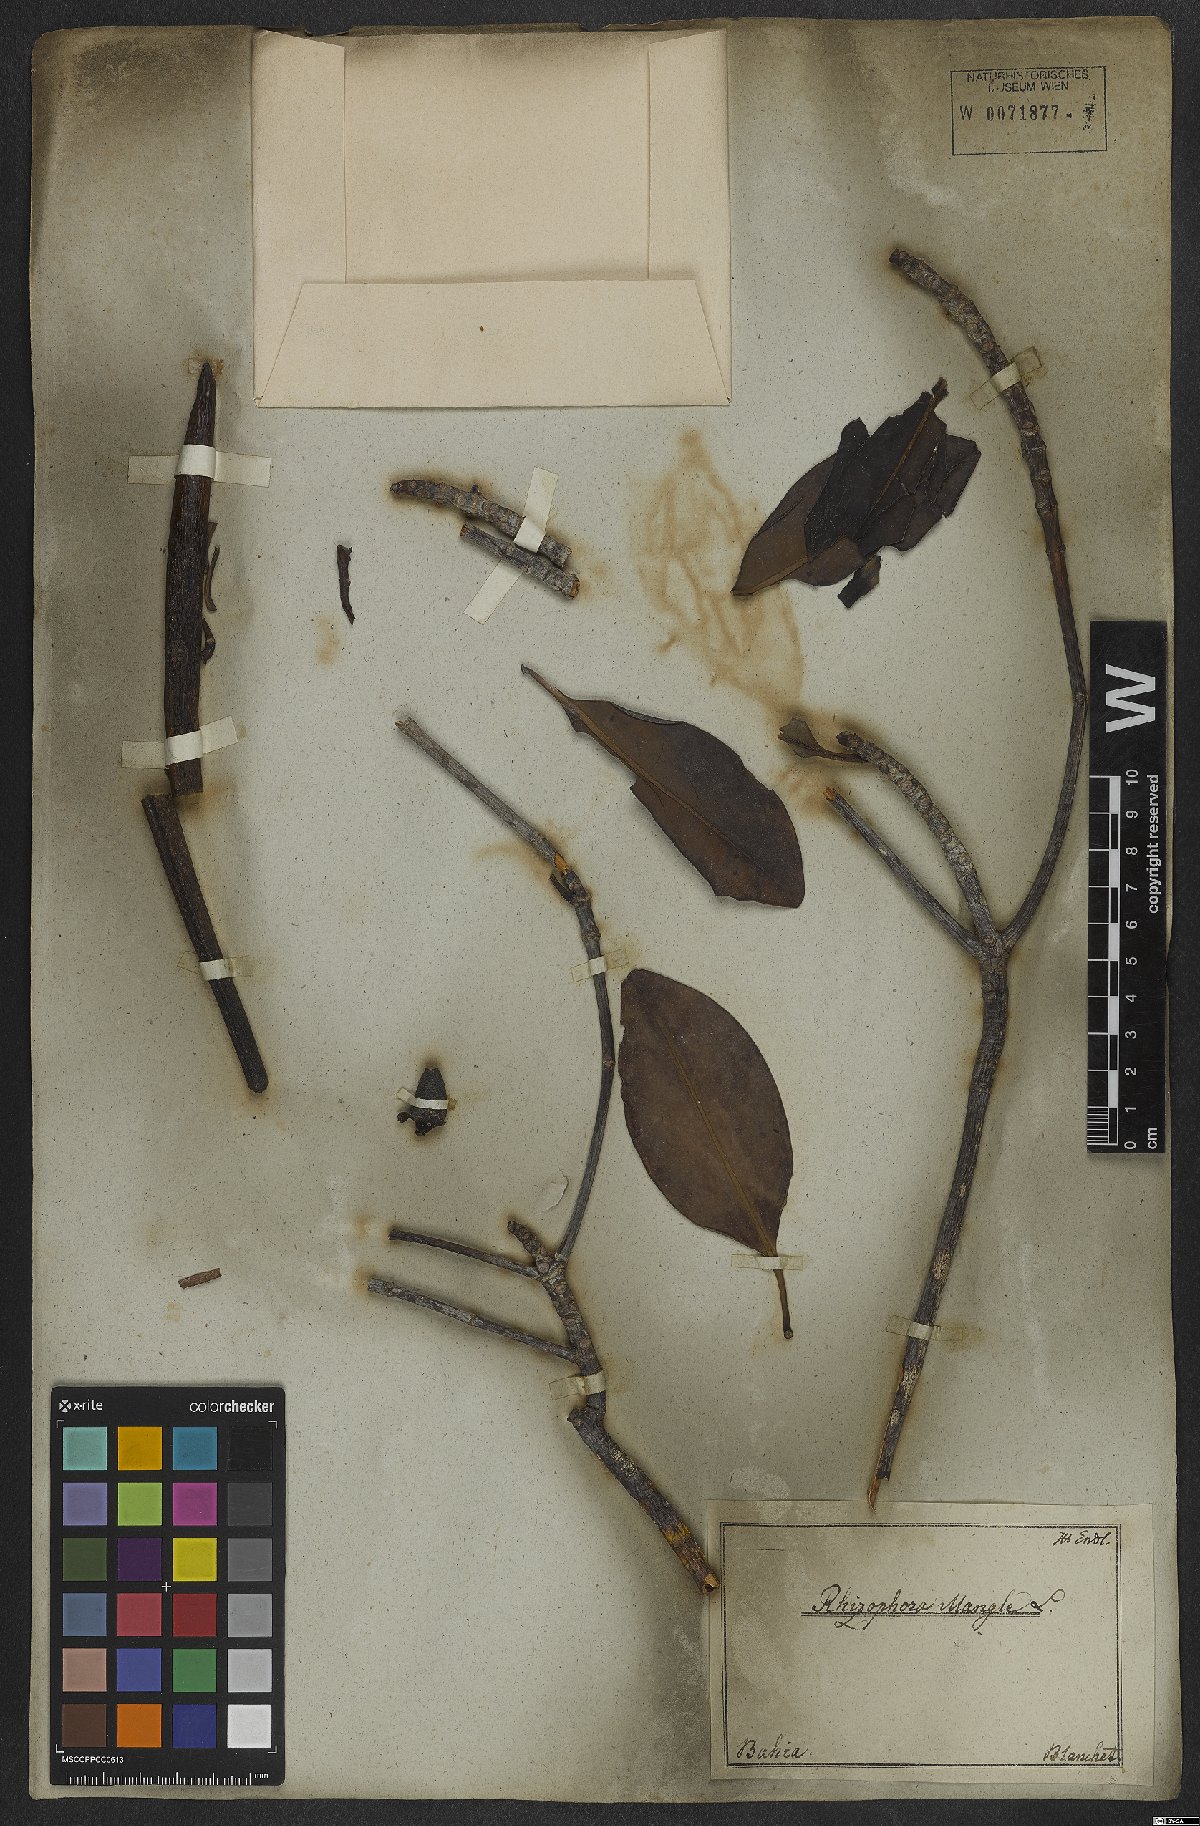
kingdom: Plantae
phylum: Tracheophyta
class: Magnoliopsida
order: Malpighiales
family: Rhizophoraceae
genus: Rhizophora
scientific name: Rhizophora mangle
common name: Red mangrove
